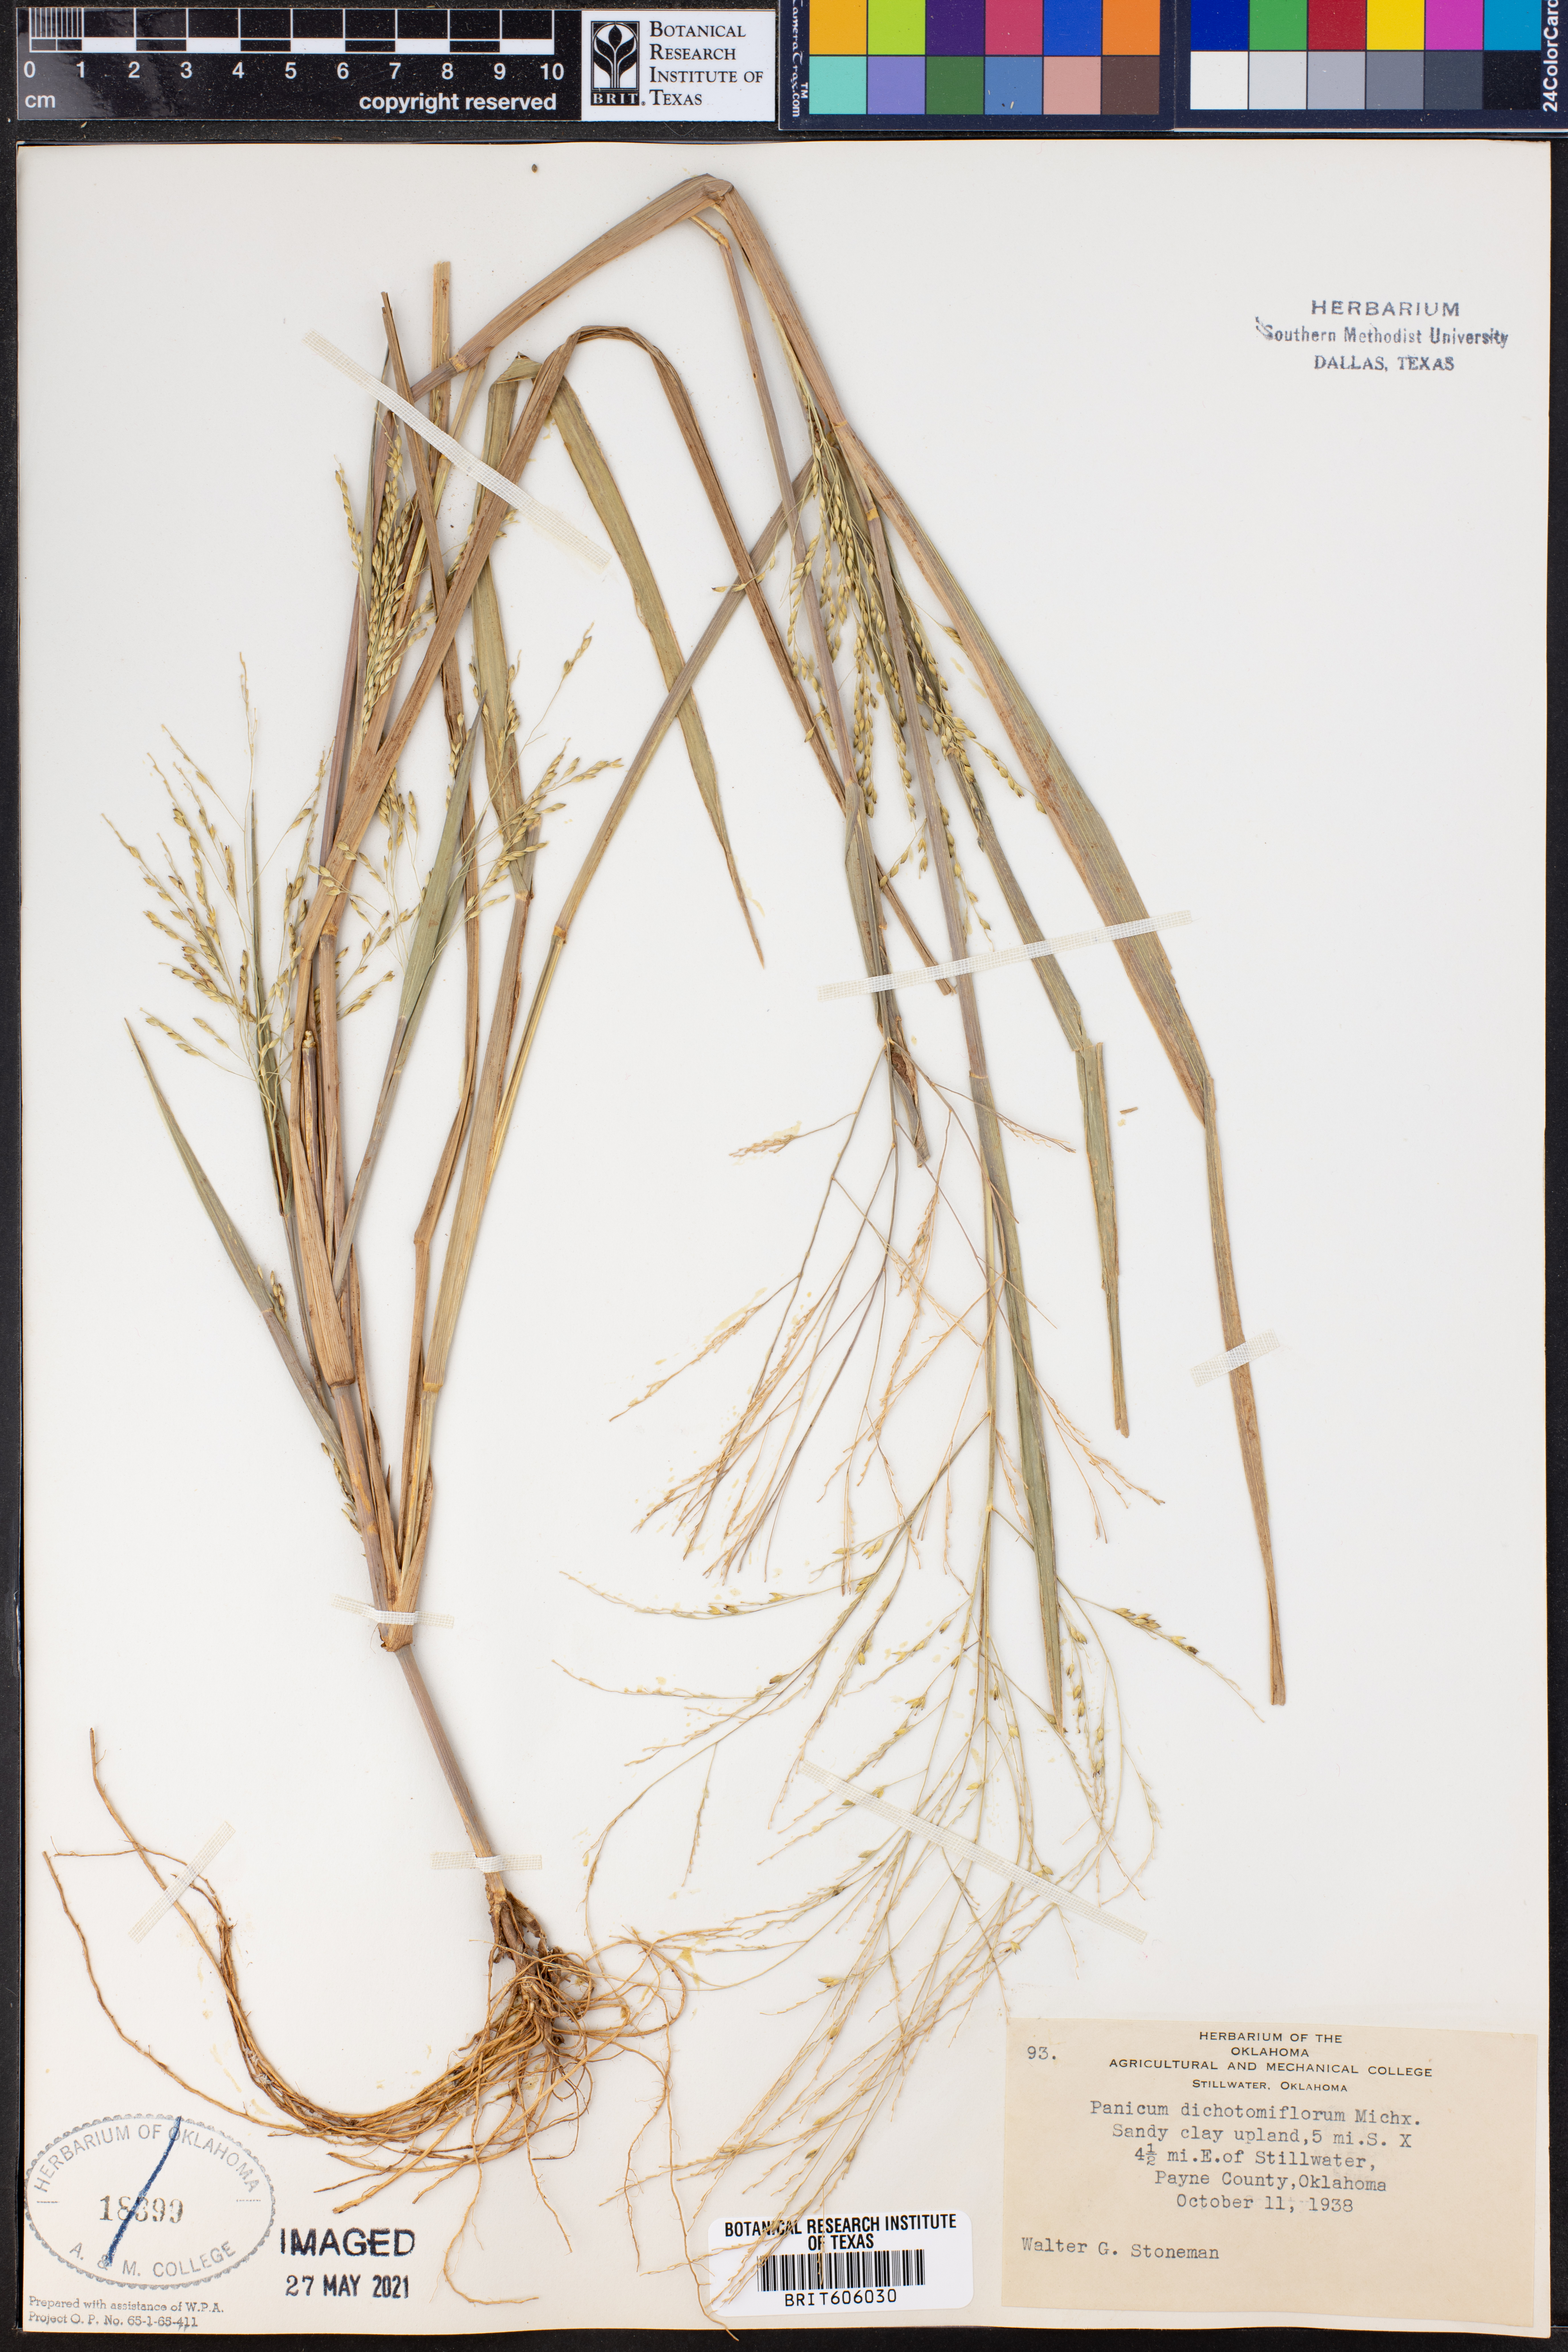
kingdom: Plantae
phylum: Tracheophyta
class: Liliopsida
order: Poales
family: Poaceae
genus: Panicum
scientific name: Panicum dichotomiflorum
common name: Autumn millet
